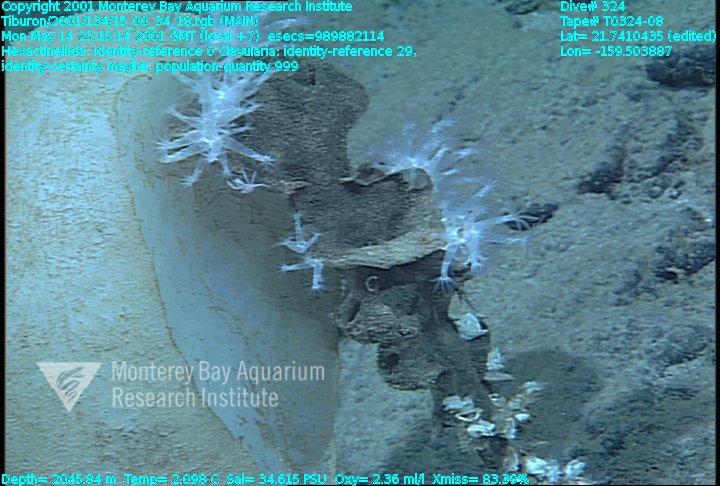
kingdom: Animalia
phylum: Porifera
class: Hexactinellida
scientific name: Hexactinellida
